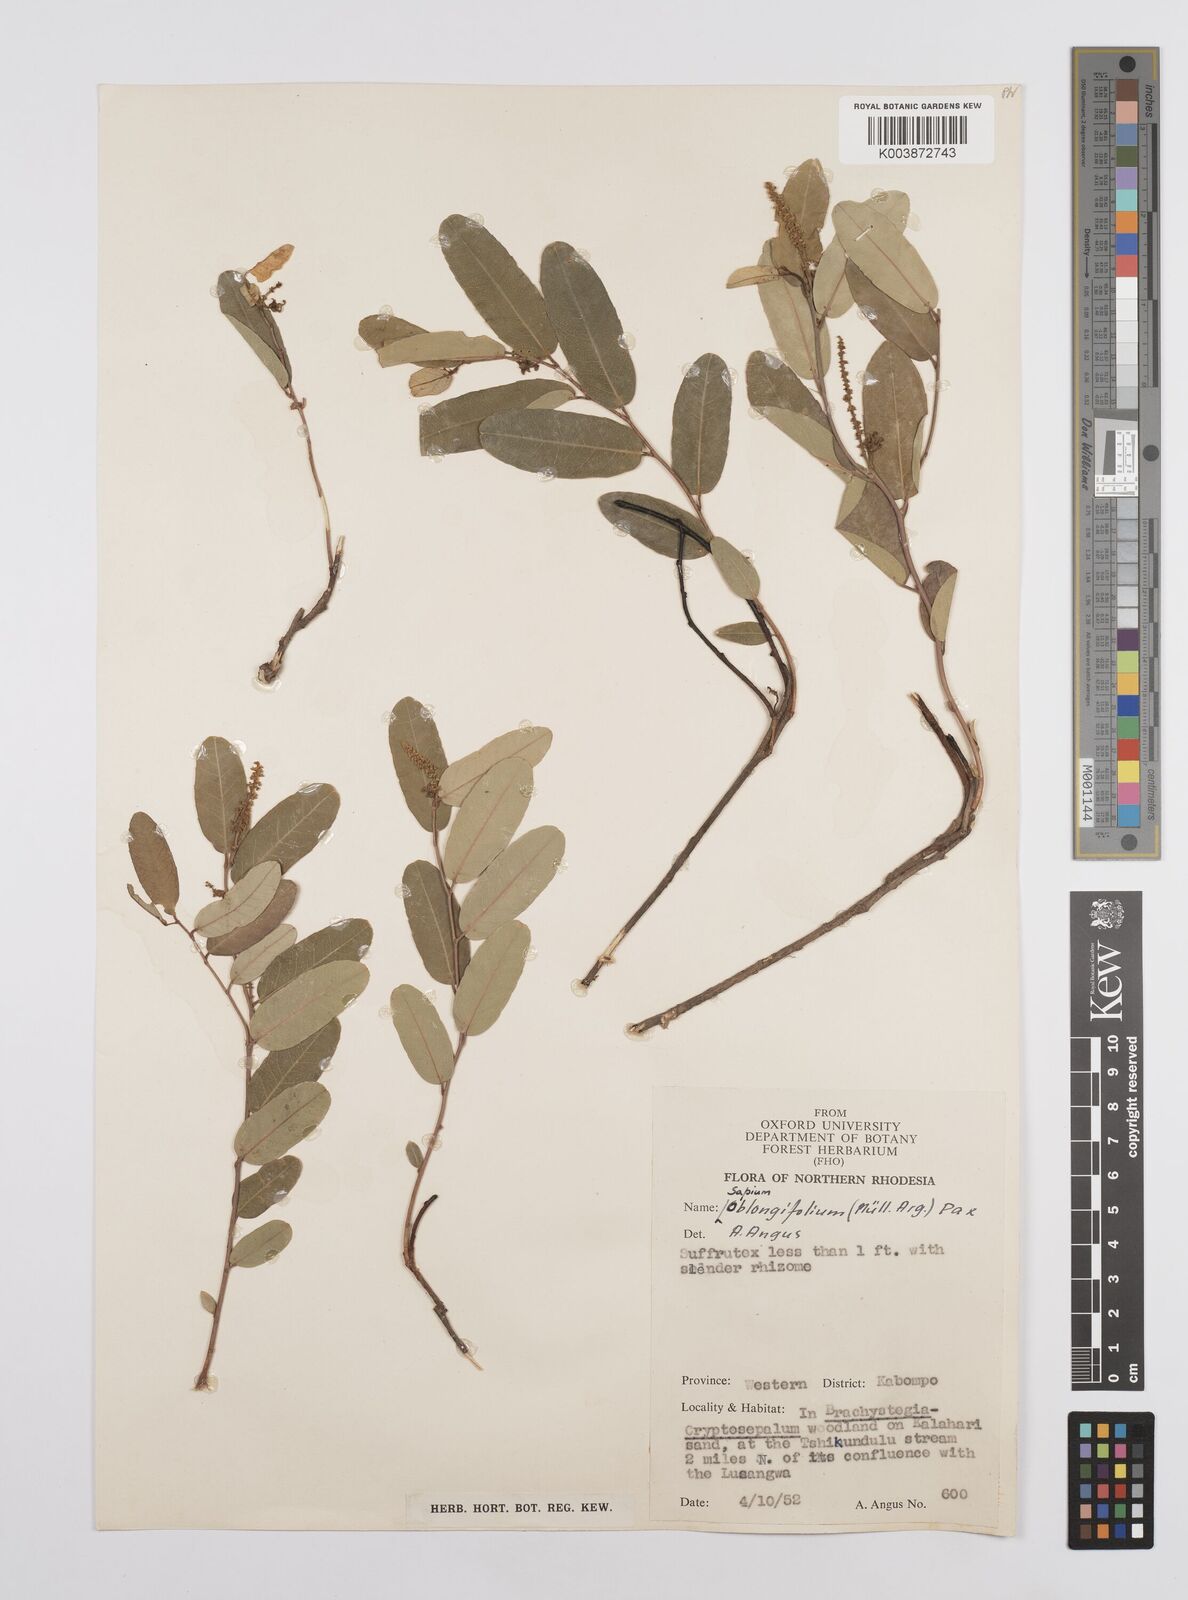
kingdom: Plantae
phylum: Tracheophyta
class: Magnoliopsida
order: Malpighiales
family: Euphorbiaceae
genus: Sclerocroton
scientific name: Sclerocroton oblongifolius
